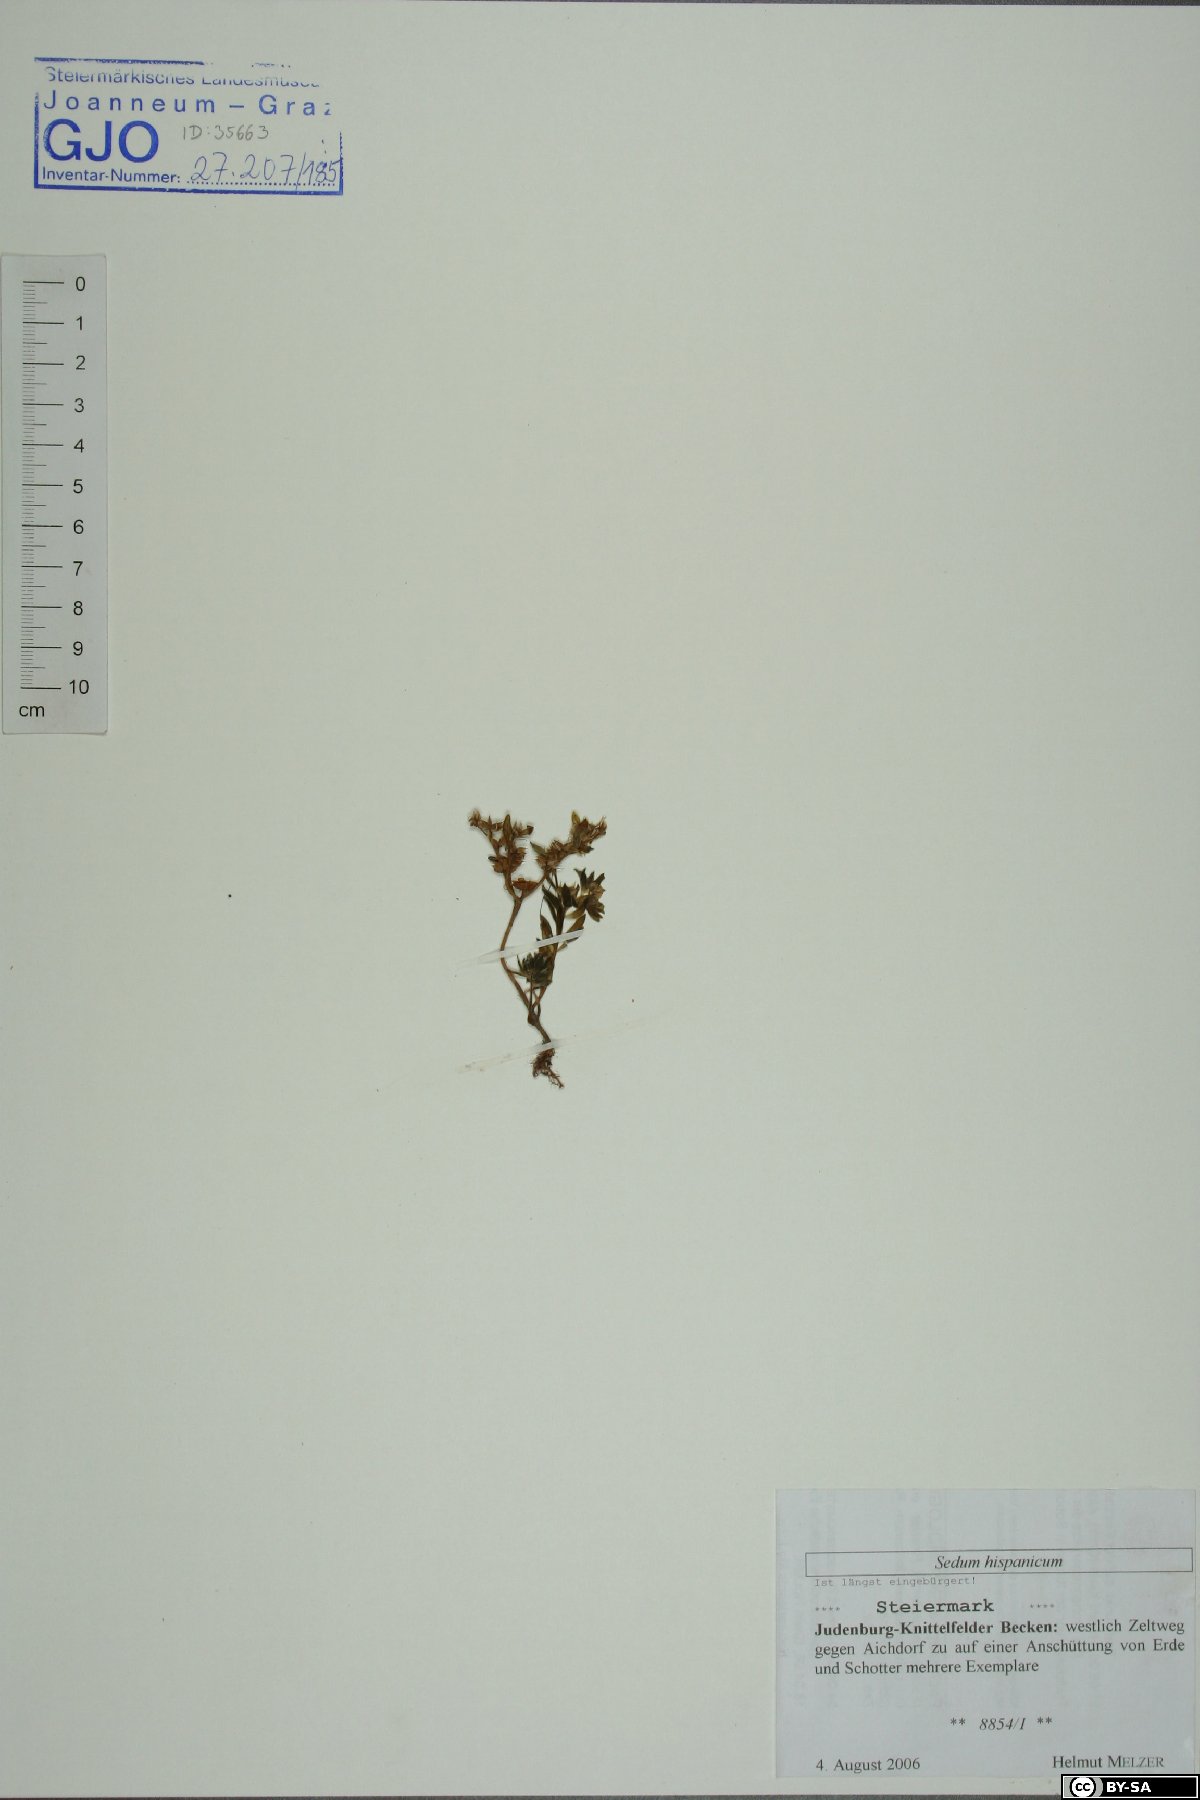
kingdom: Plantae
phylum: Tracheophyta
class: Magnoliopsida
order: Saxifragales
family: Crassulaceae
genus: Sedum
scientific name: Sedum hispanicum
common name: Spanish stonecrop
